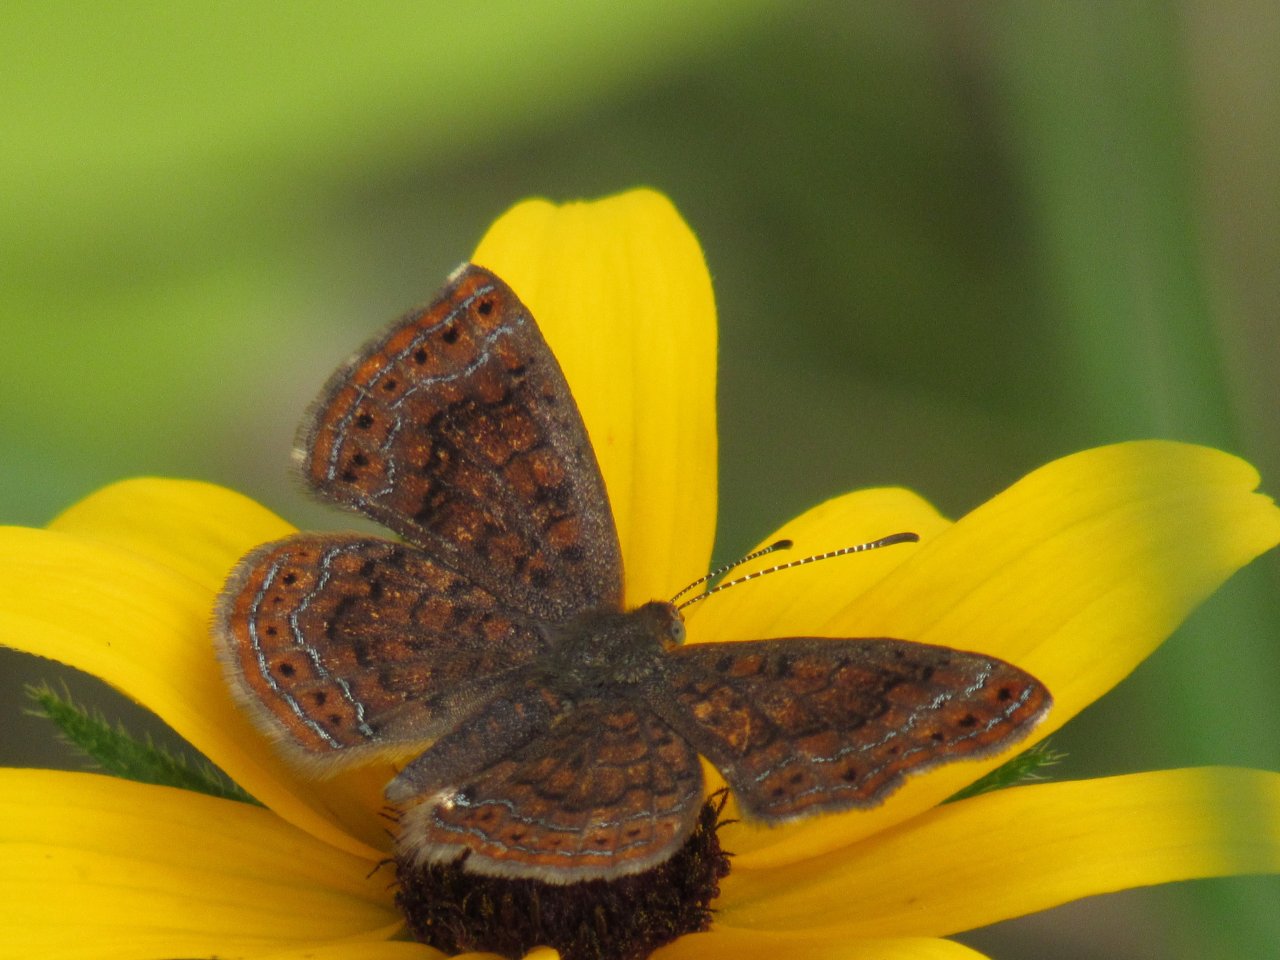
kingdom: Animalia
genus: Calephelis
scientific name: Calephelis borealis
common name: Northern Metalmark
